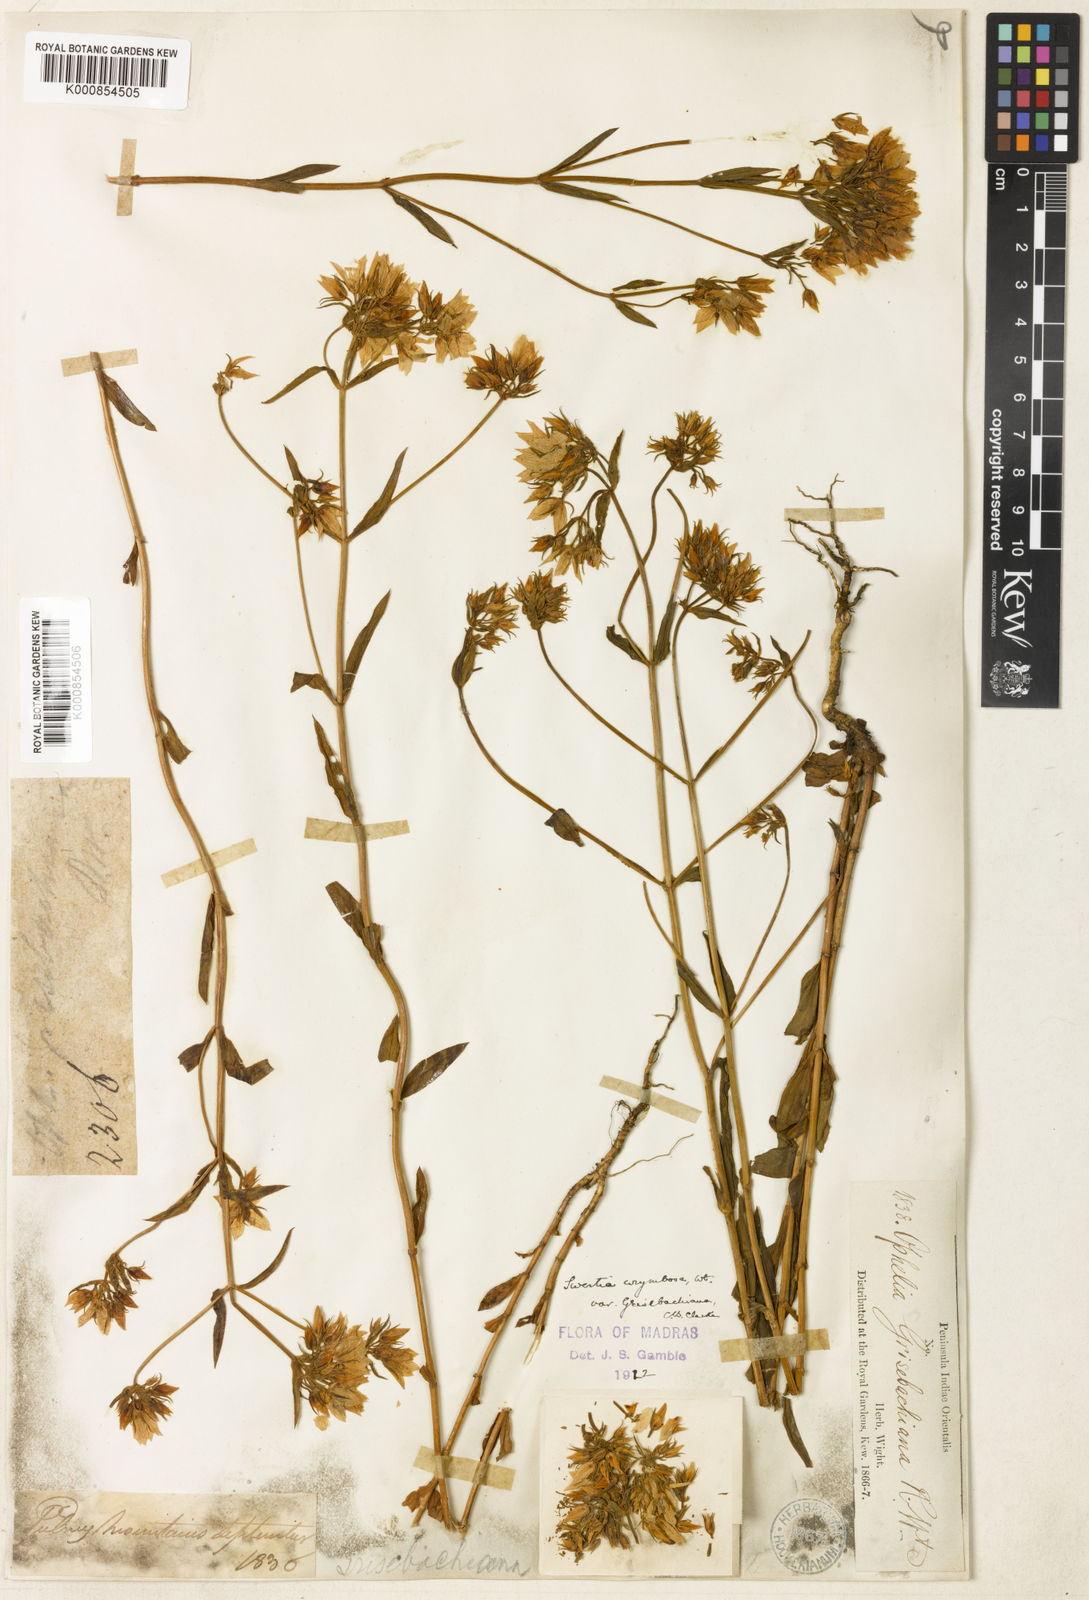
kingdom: Plantae
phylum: Tracheophyta
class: Magnoliopsida
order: Gentianales
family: Gentianaceae
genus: Swertia
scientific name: Swertia corymbosa
